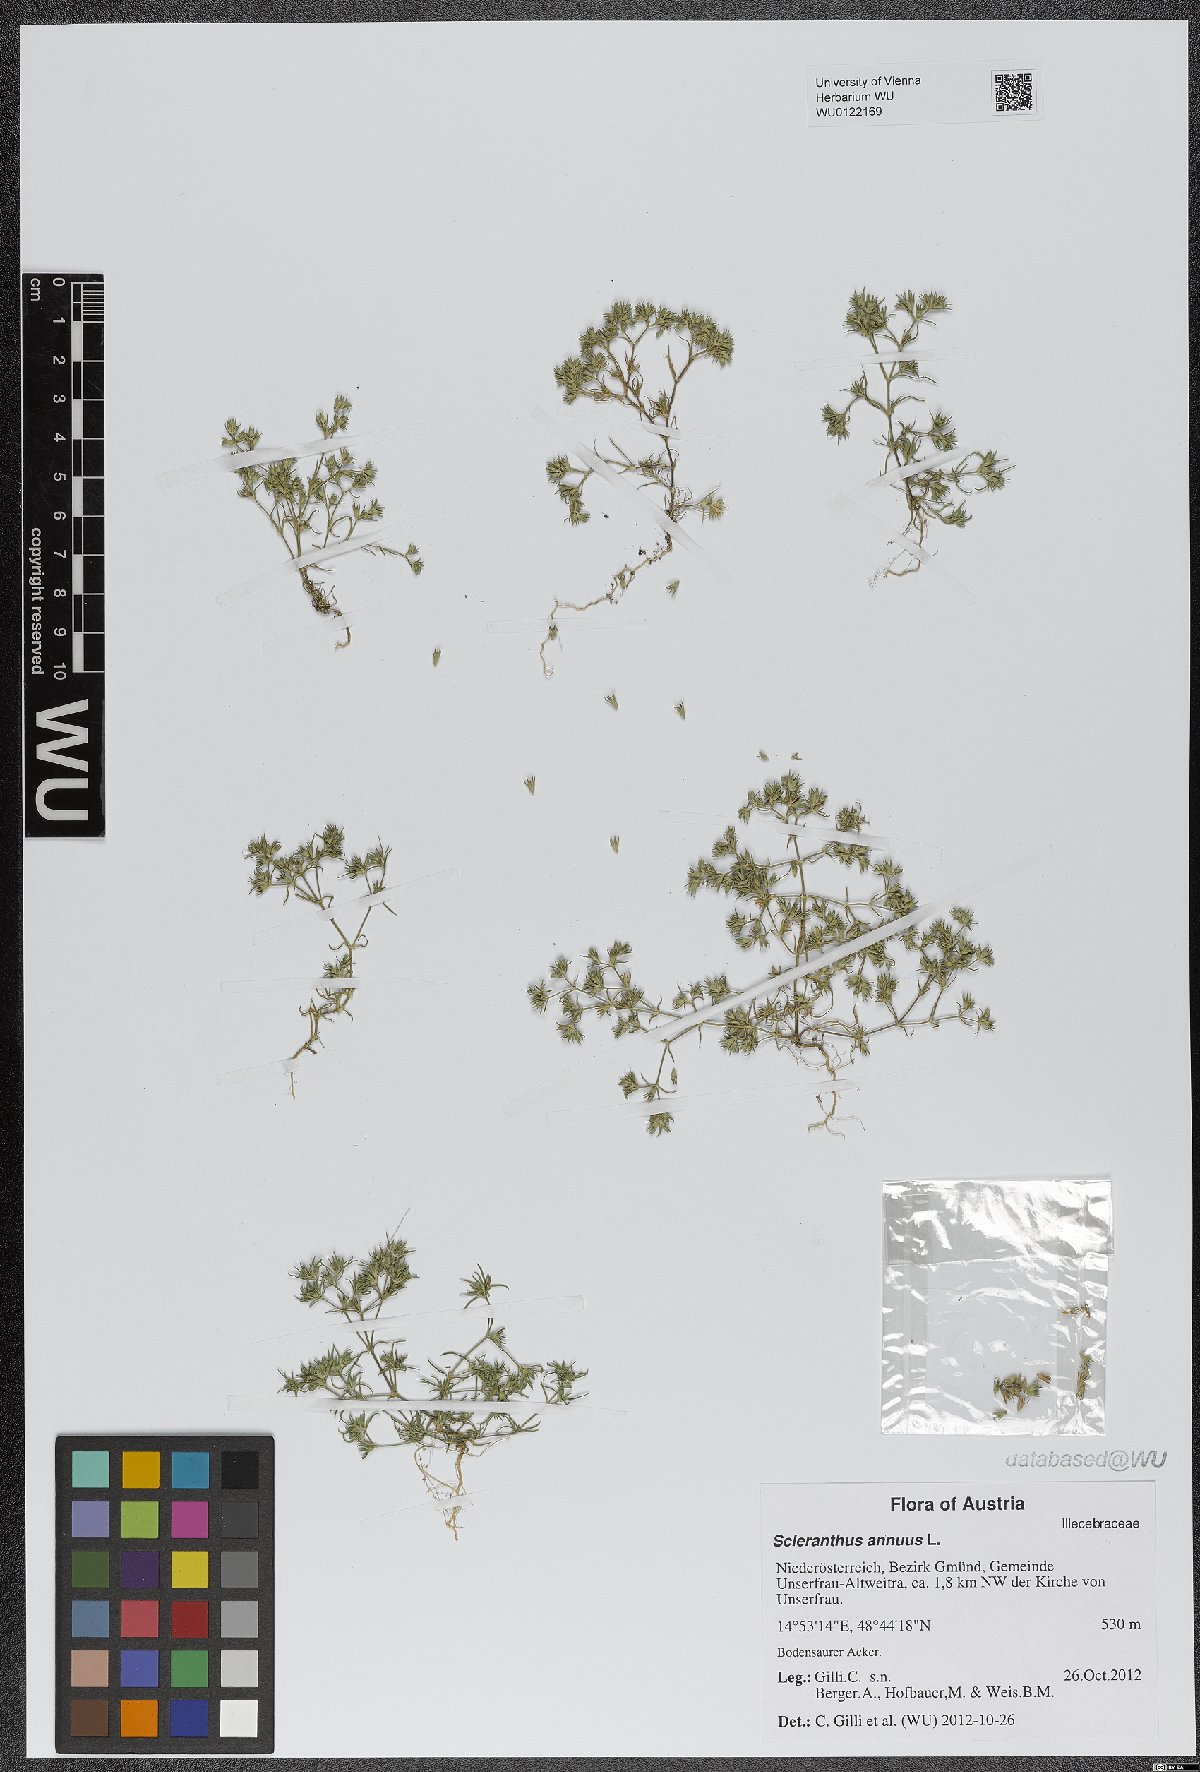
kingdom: Plantae
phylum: Tracheophyta
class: Magnoliopsida
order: Caryophyllales
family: Caryophyllaceae
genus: Scleranthus
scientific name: Scleranthus annuus
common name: Annual knawel
